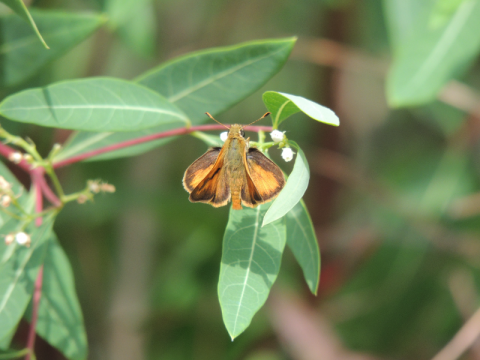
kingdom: Animalia
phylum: Arthropoda
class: Insecta
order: Lepidoptera
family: Hesperiidae
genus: Ochlodes
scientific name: Ochlodes sylvanoides
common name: Woodland Skipper
